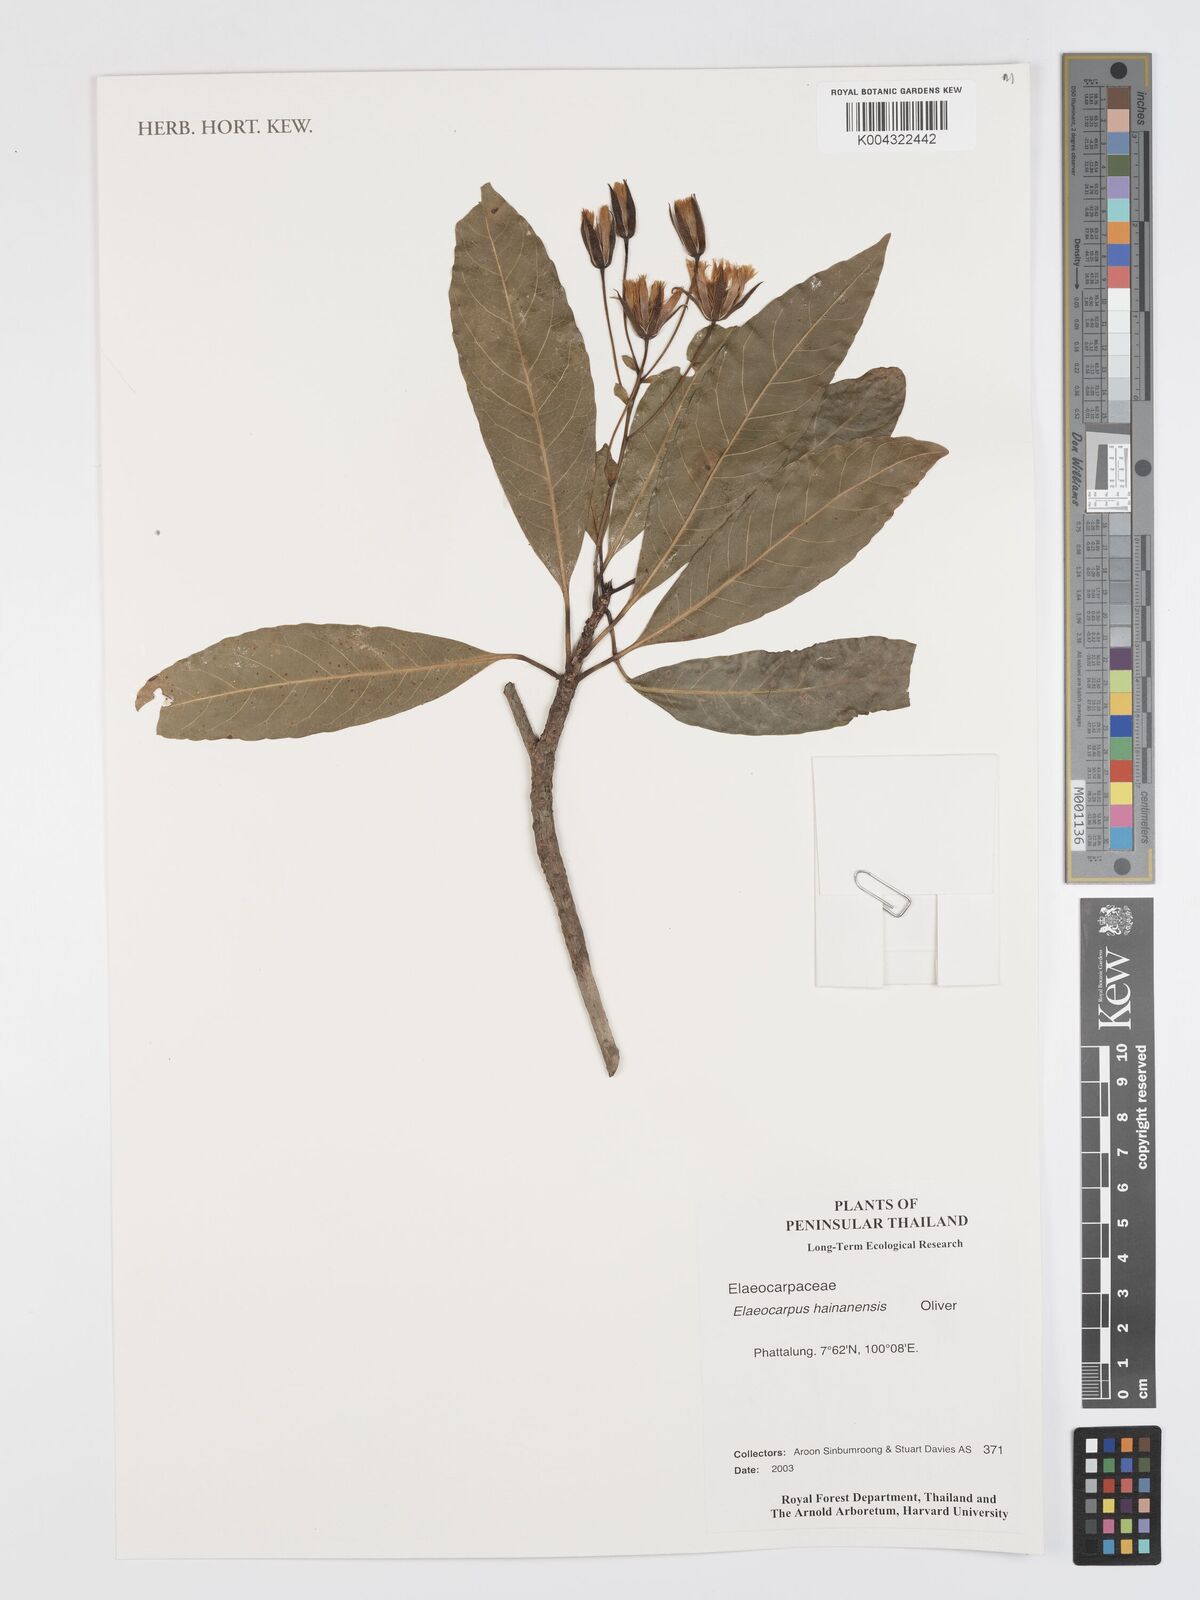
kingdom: Plantae
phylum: Tracheophyta
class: Magnoliopsida
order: Oxalidales
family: Elaeocarpaceae
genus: Elaeocarpus
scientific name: Elaeocarpus hainanensis
